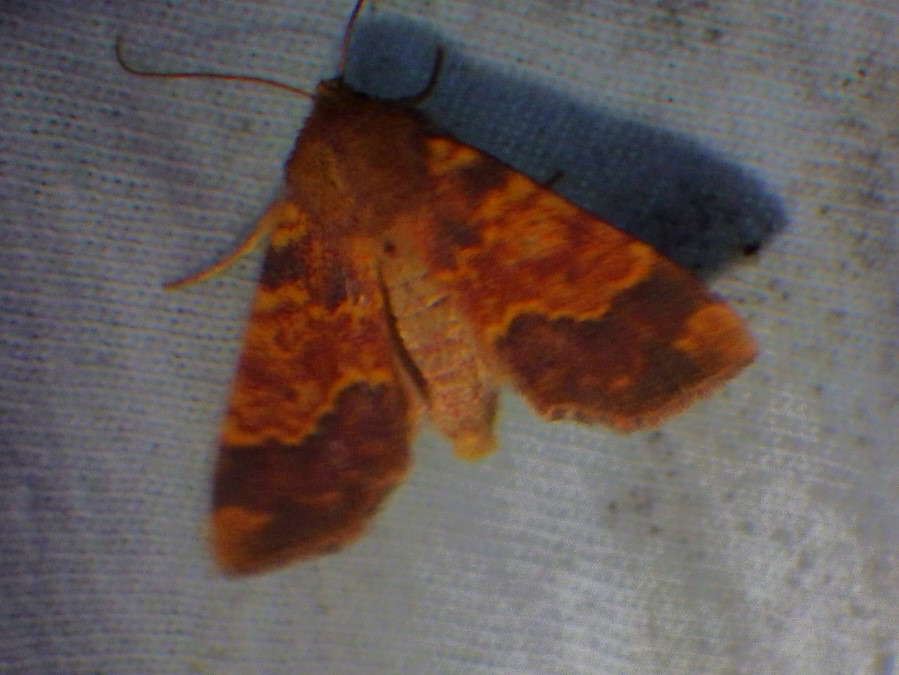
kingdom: Animalia
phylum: Arthropoda
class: Insecta
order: Lepidoptera
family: Noctuidae
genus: Tiliacea
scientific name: Tiliacea aurago
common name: Guldugle
